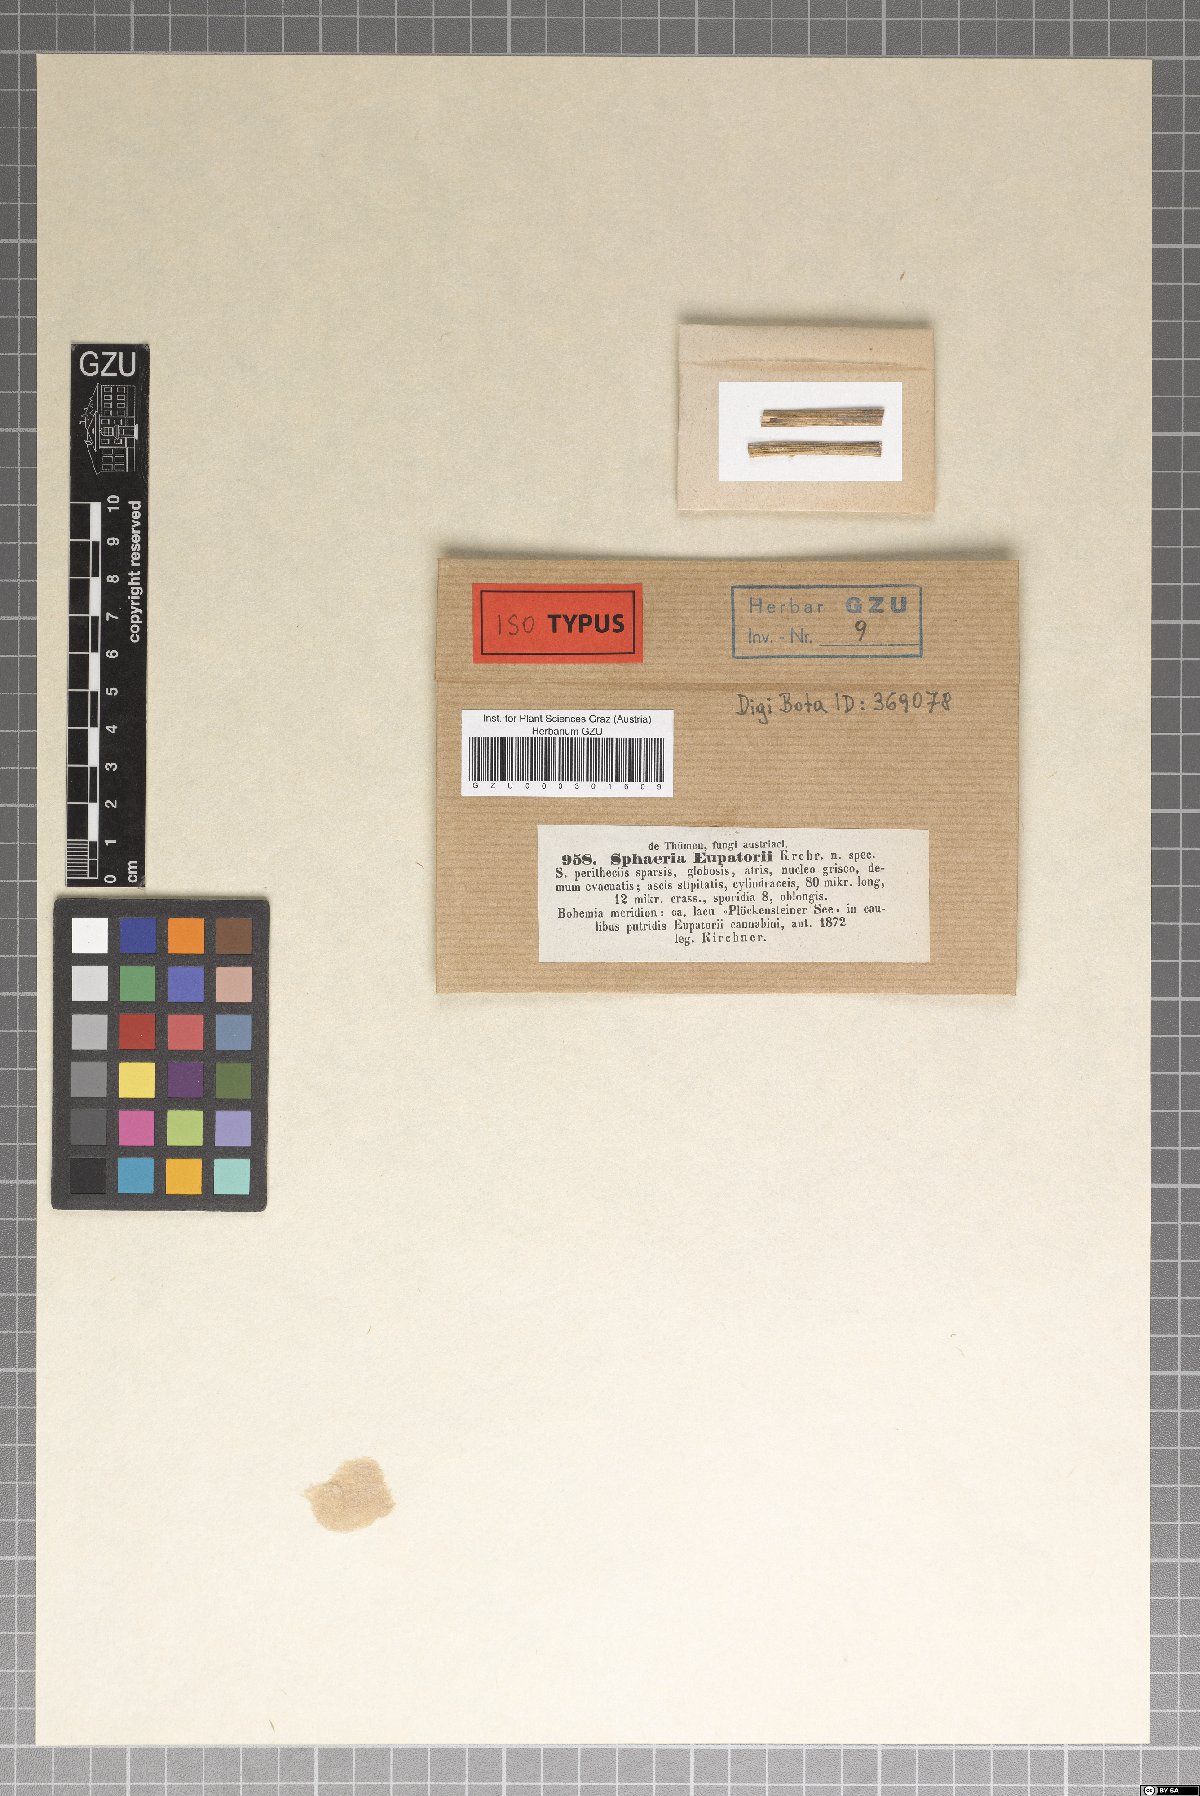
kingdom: Fungi
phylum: Ascomycota
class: Sordariomycetes
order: Xylariales
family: Xylariaceae
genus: Sphaeria
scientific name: Sphaeria
